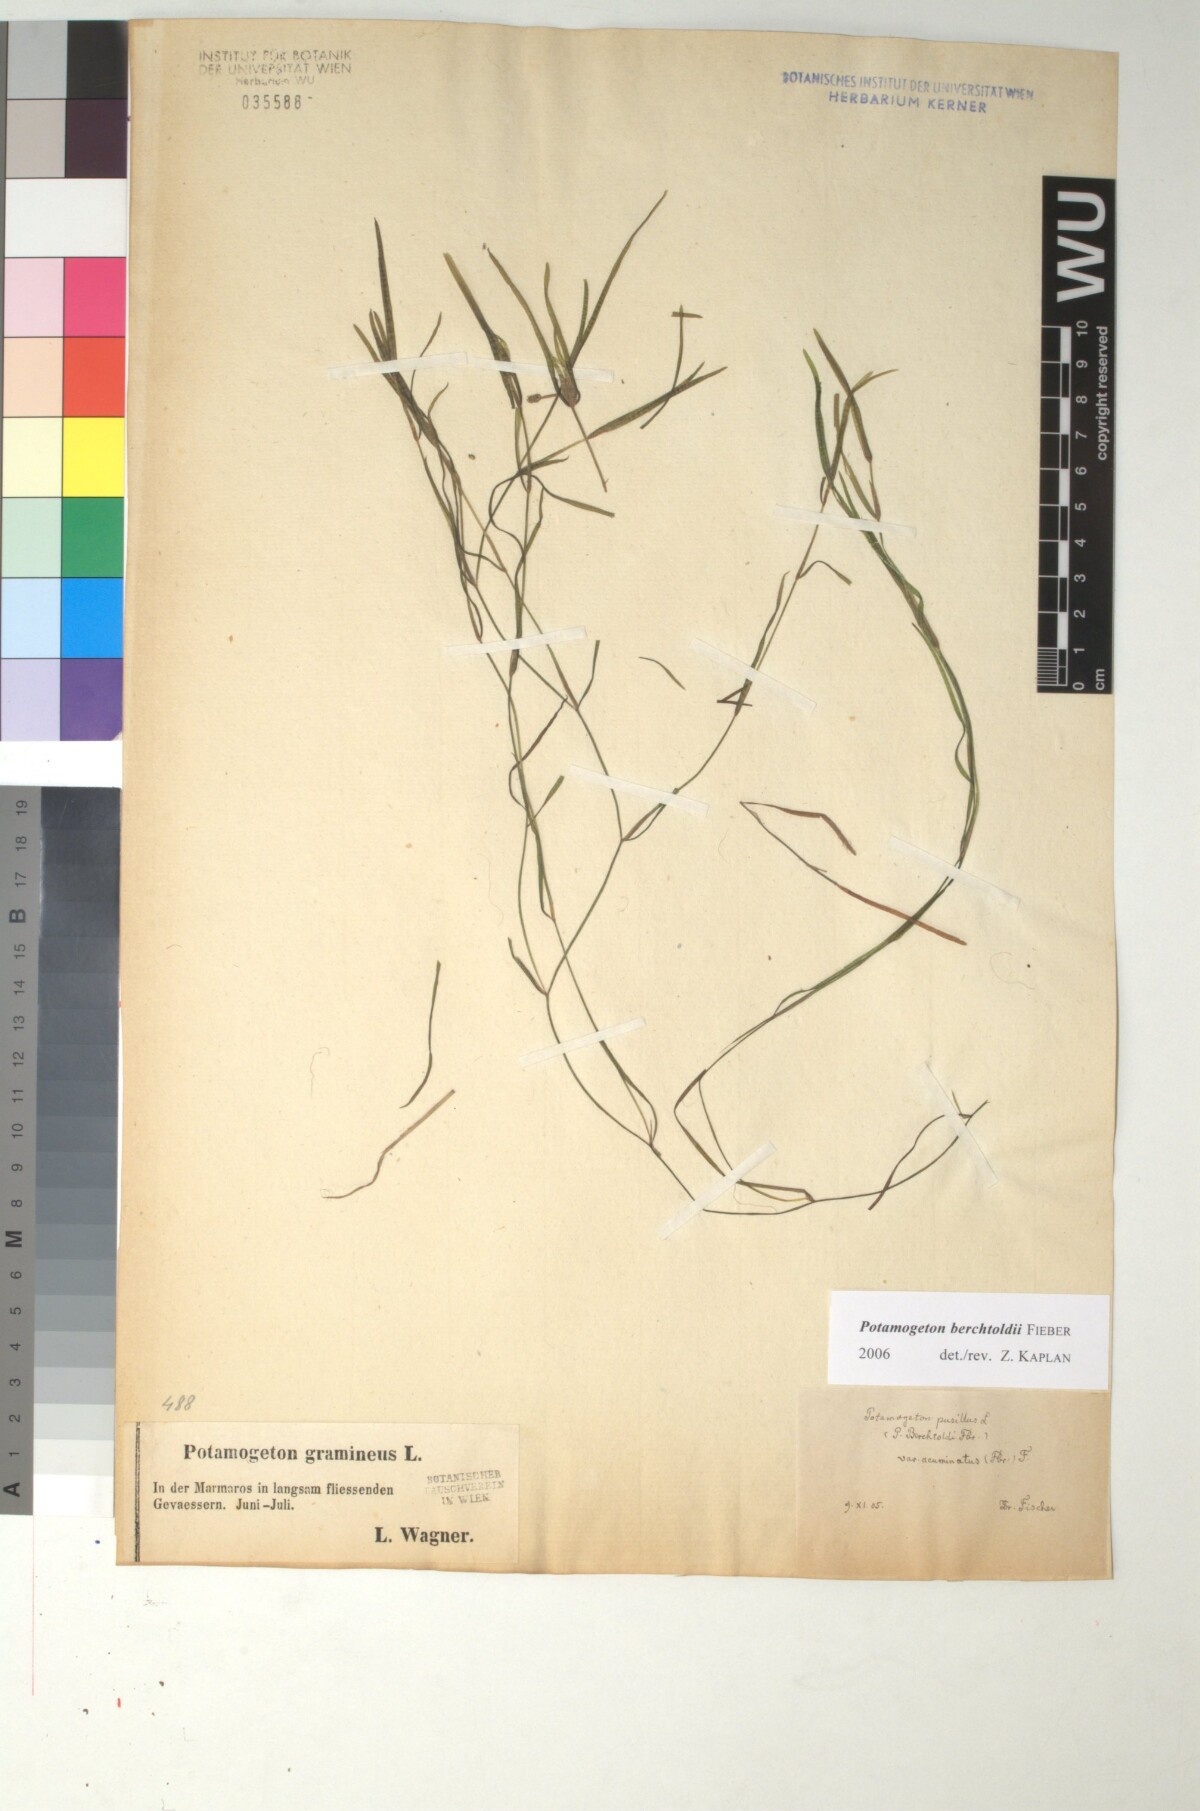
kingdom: Plantae
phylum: Tracheophyta
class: Liliopsida
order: Alismatales
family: Potamogetonaceae
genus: Potamogeton
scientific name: Potamogeton berchtoldii
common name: Small pondweed
